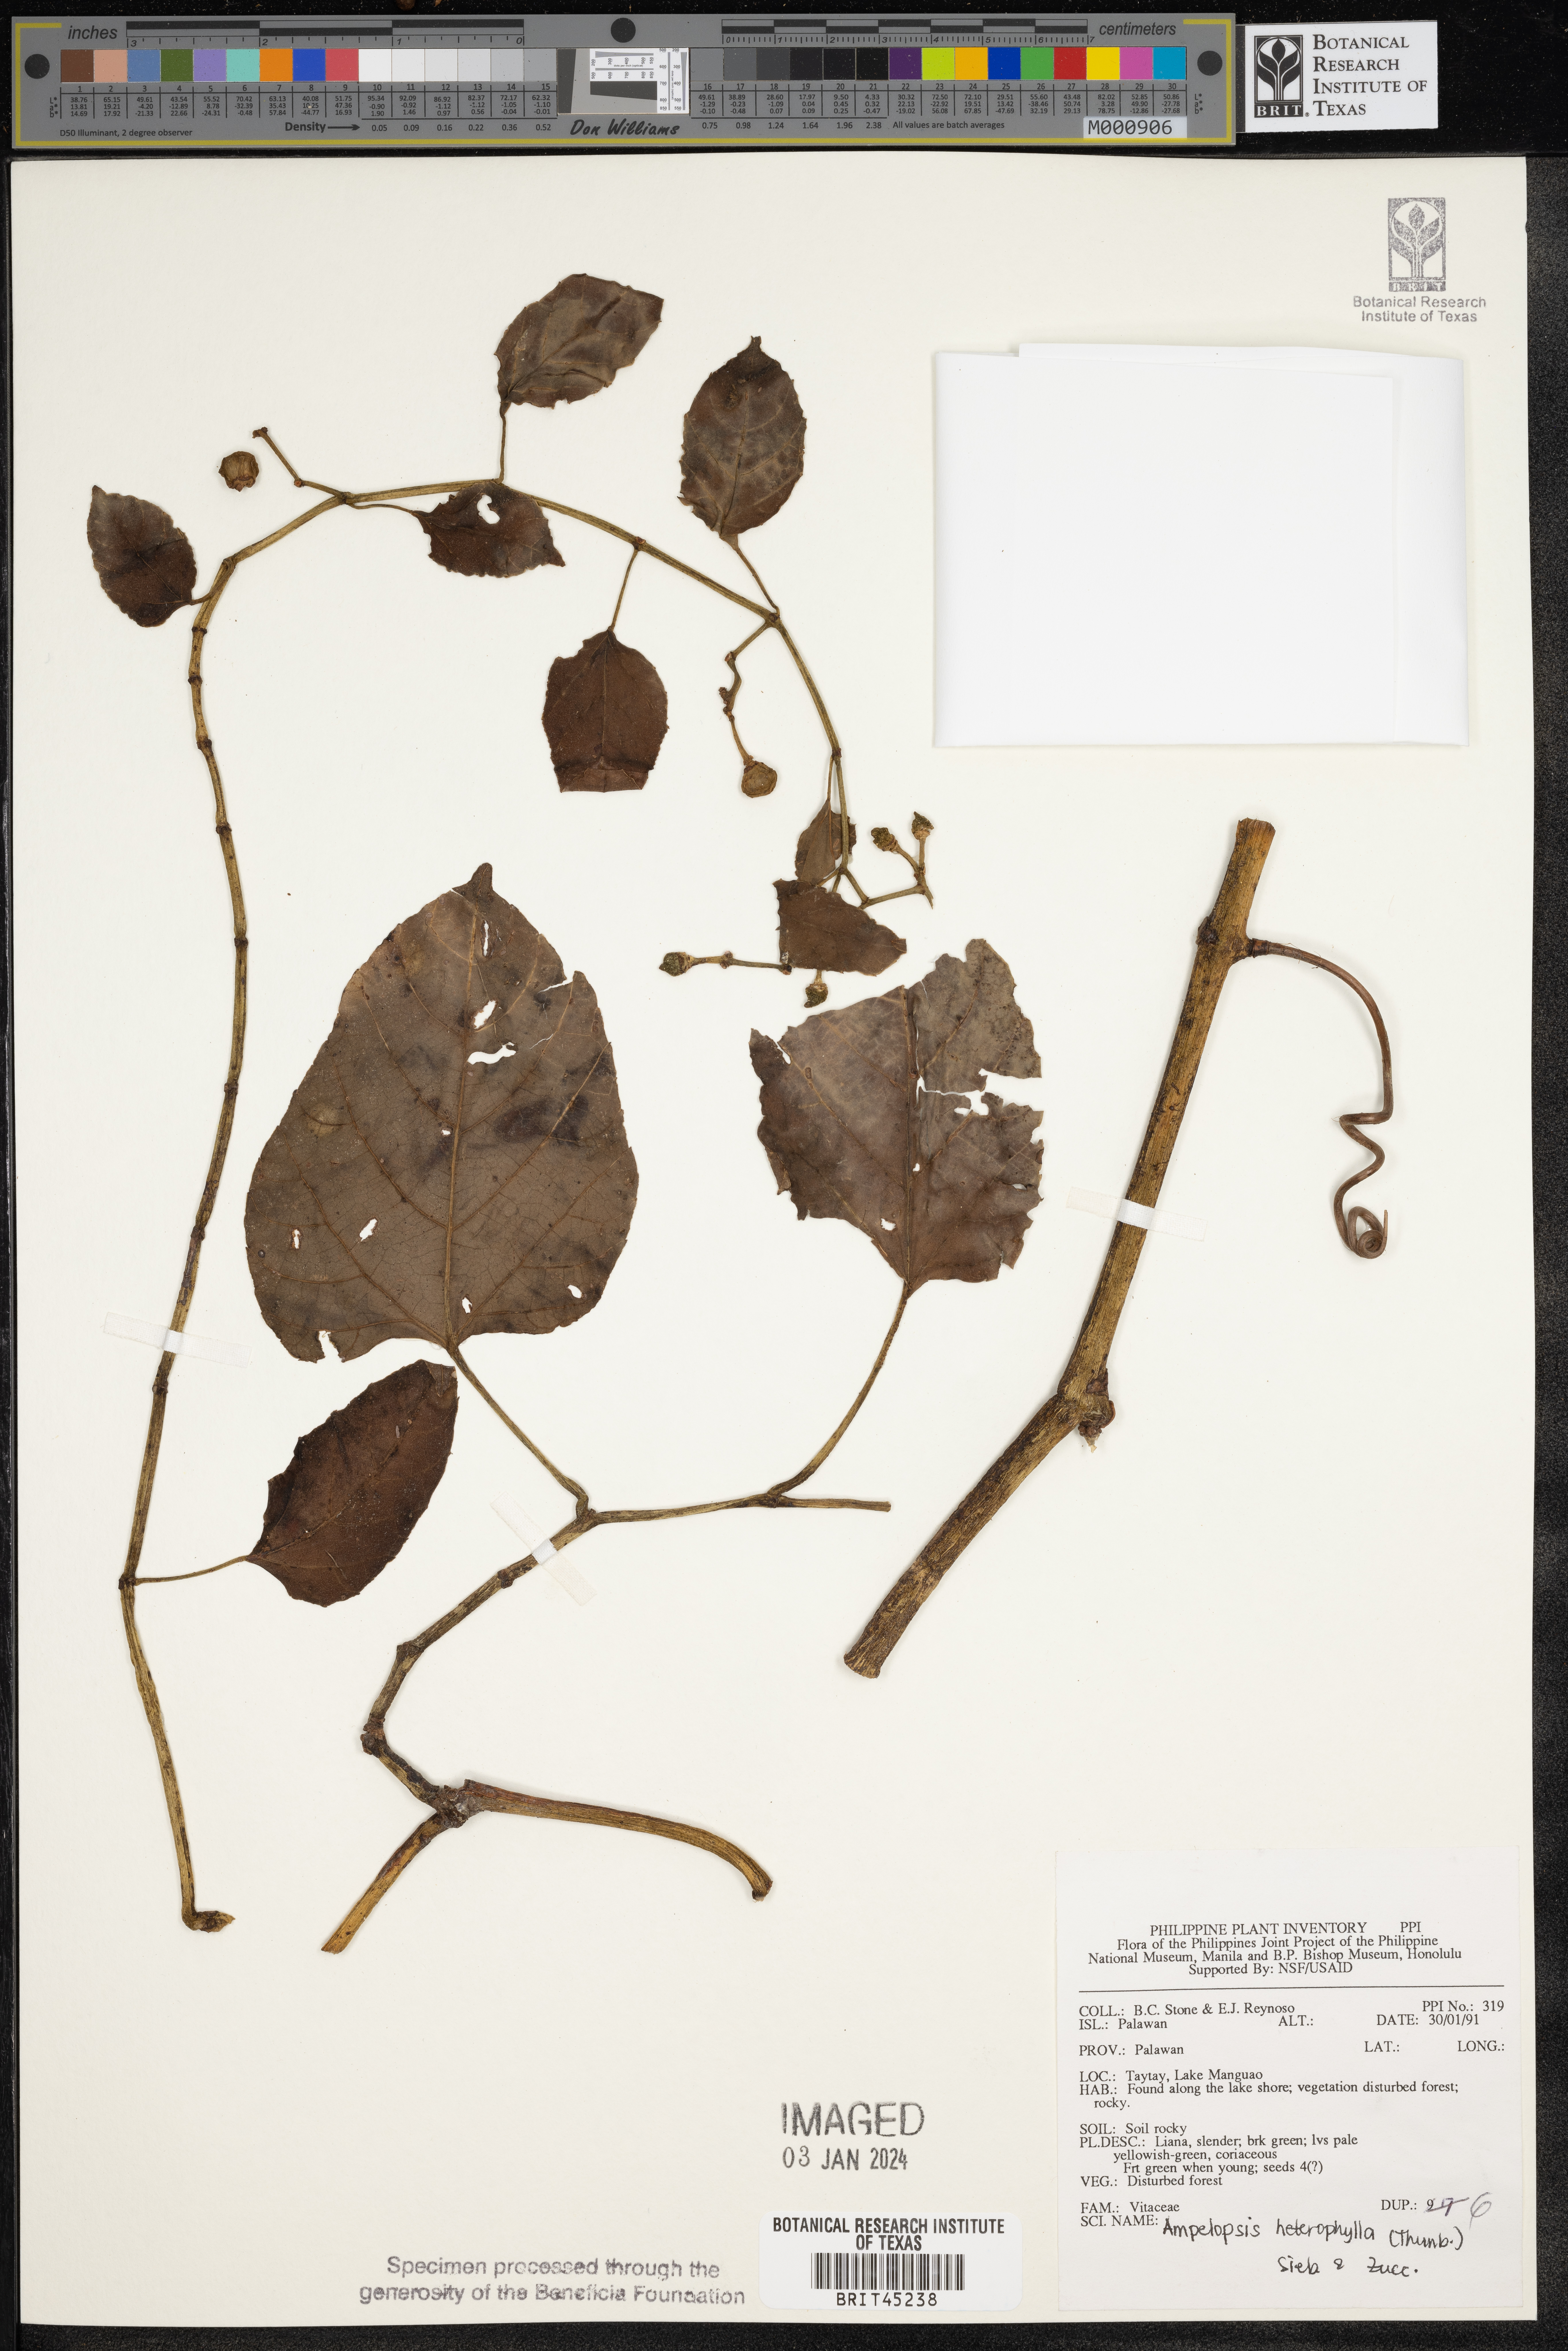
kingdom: Plantae
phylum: Tracheophyta
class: Magnoliopsida
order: Vitales
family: Vitaceae
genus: Ampelopsis
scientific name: Ampelopsis glandulosa
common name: Amur peppervine
